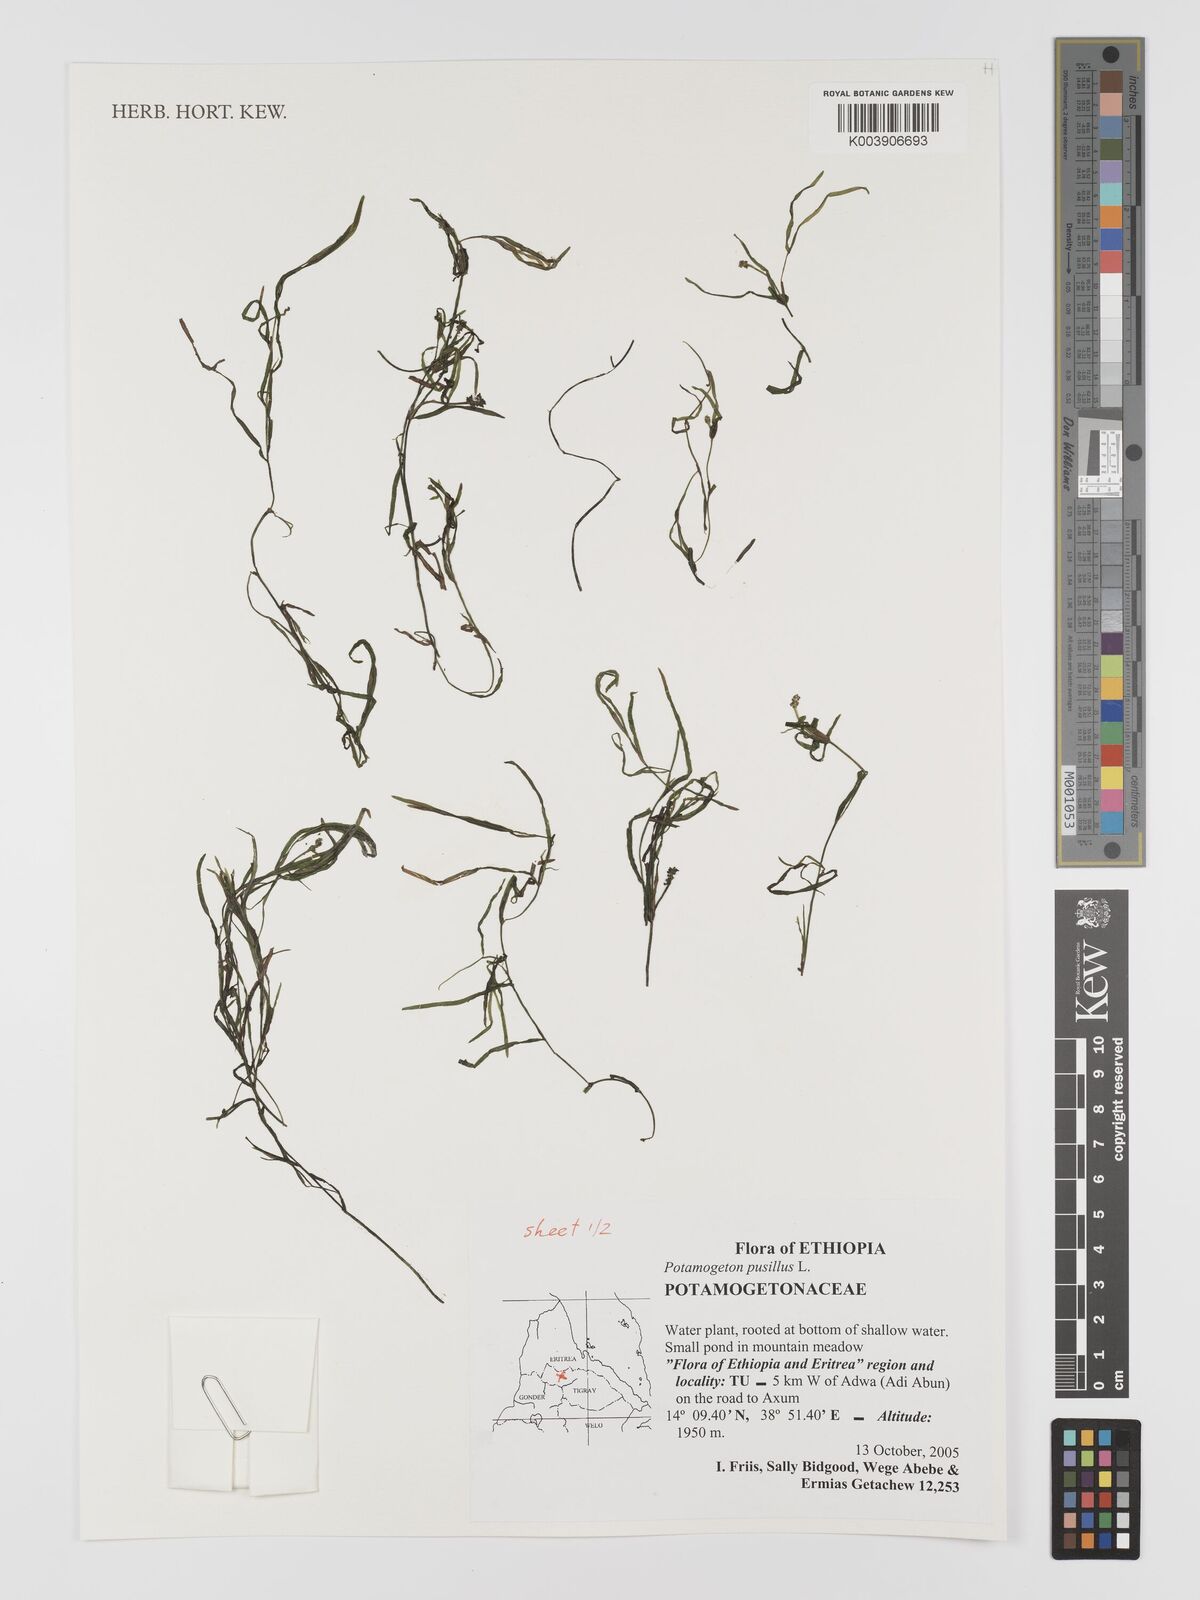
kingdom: Plantae
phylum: Tracheophyta
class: Liliopsida
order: Alismatales
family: Potamogetonaceae
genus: Potamogeton
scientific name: Potamogeton pusillus
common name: Lesser pondweed
